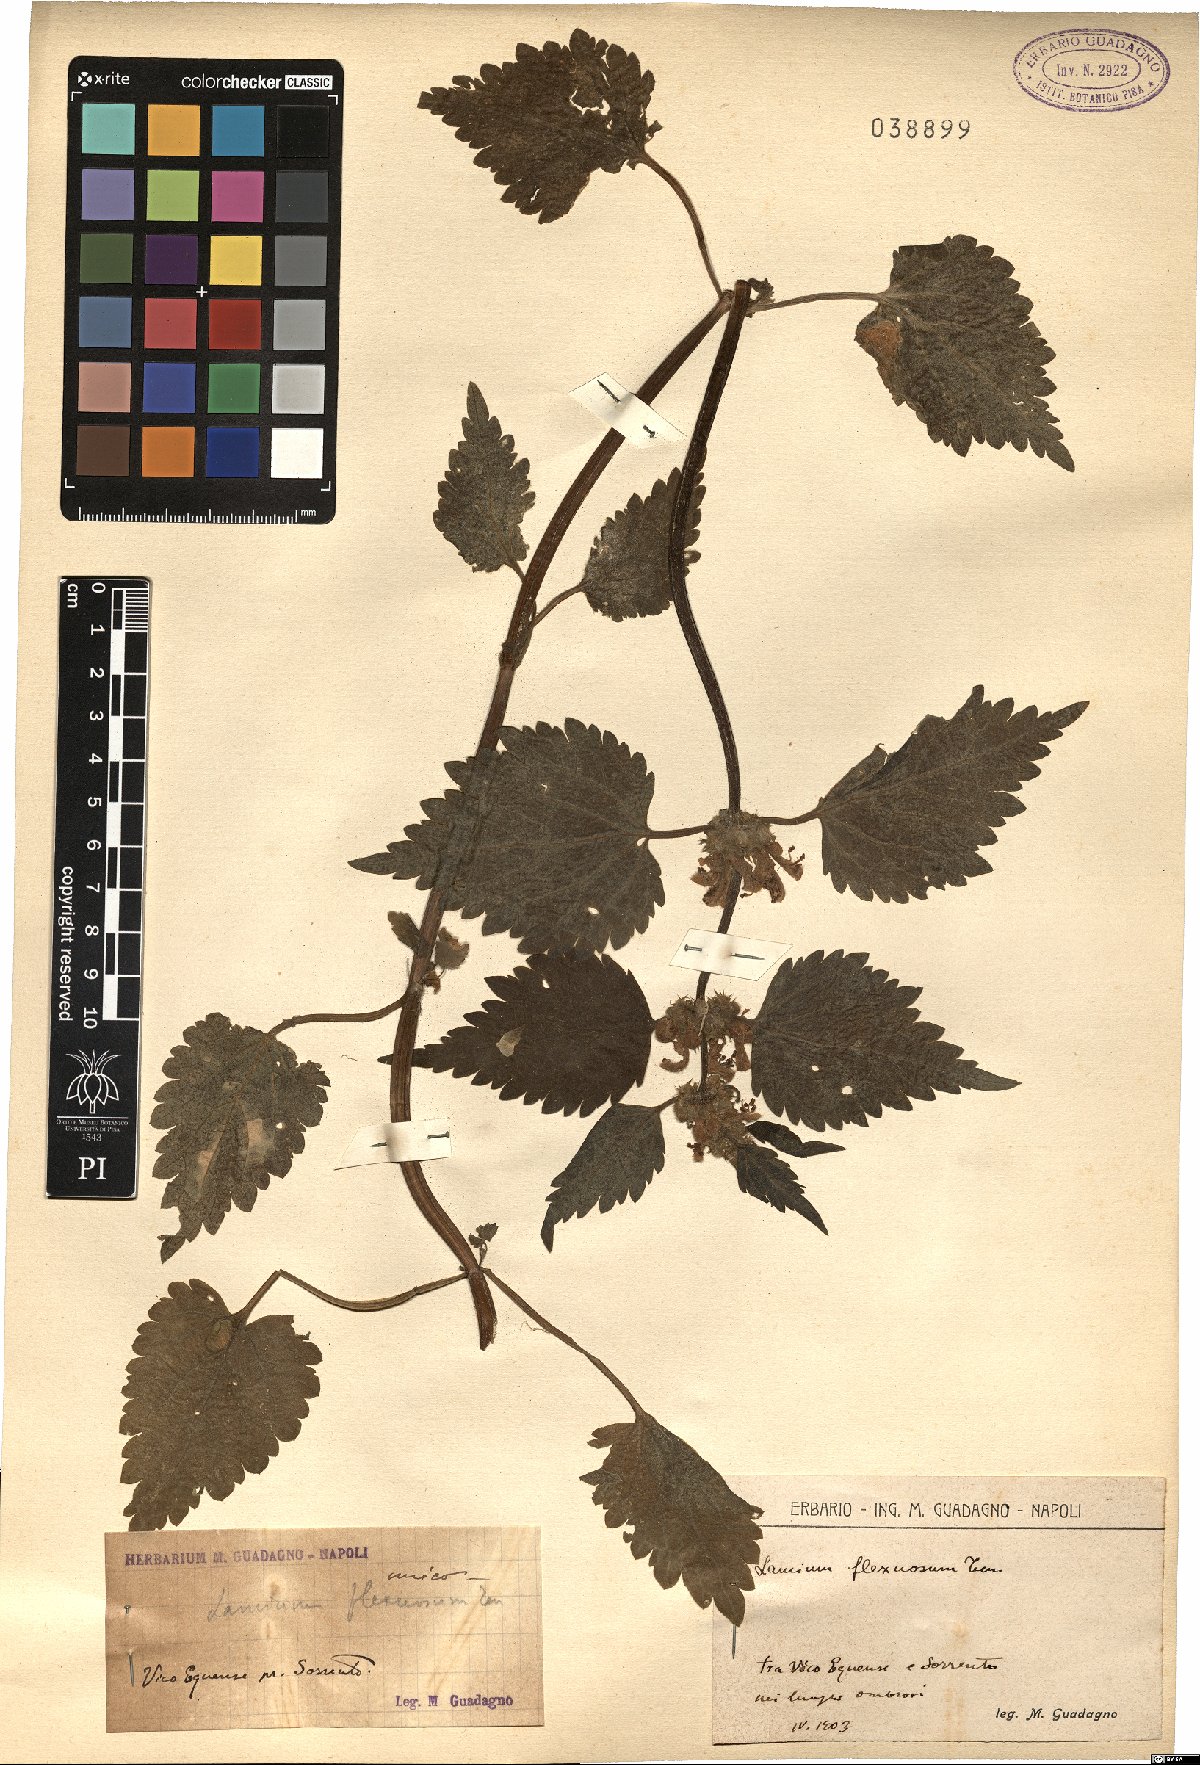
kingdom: Plantae
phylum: Tracheophyta
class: Magnoliopsida
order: Lamiales
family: Lamiaceae
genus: Lamium
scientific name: Lamium flexuosum
